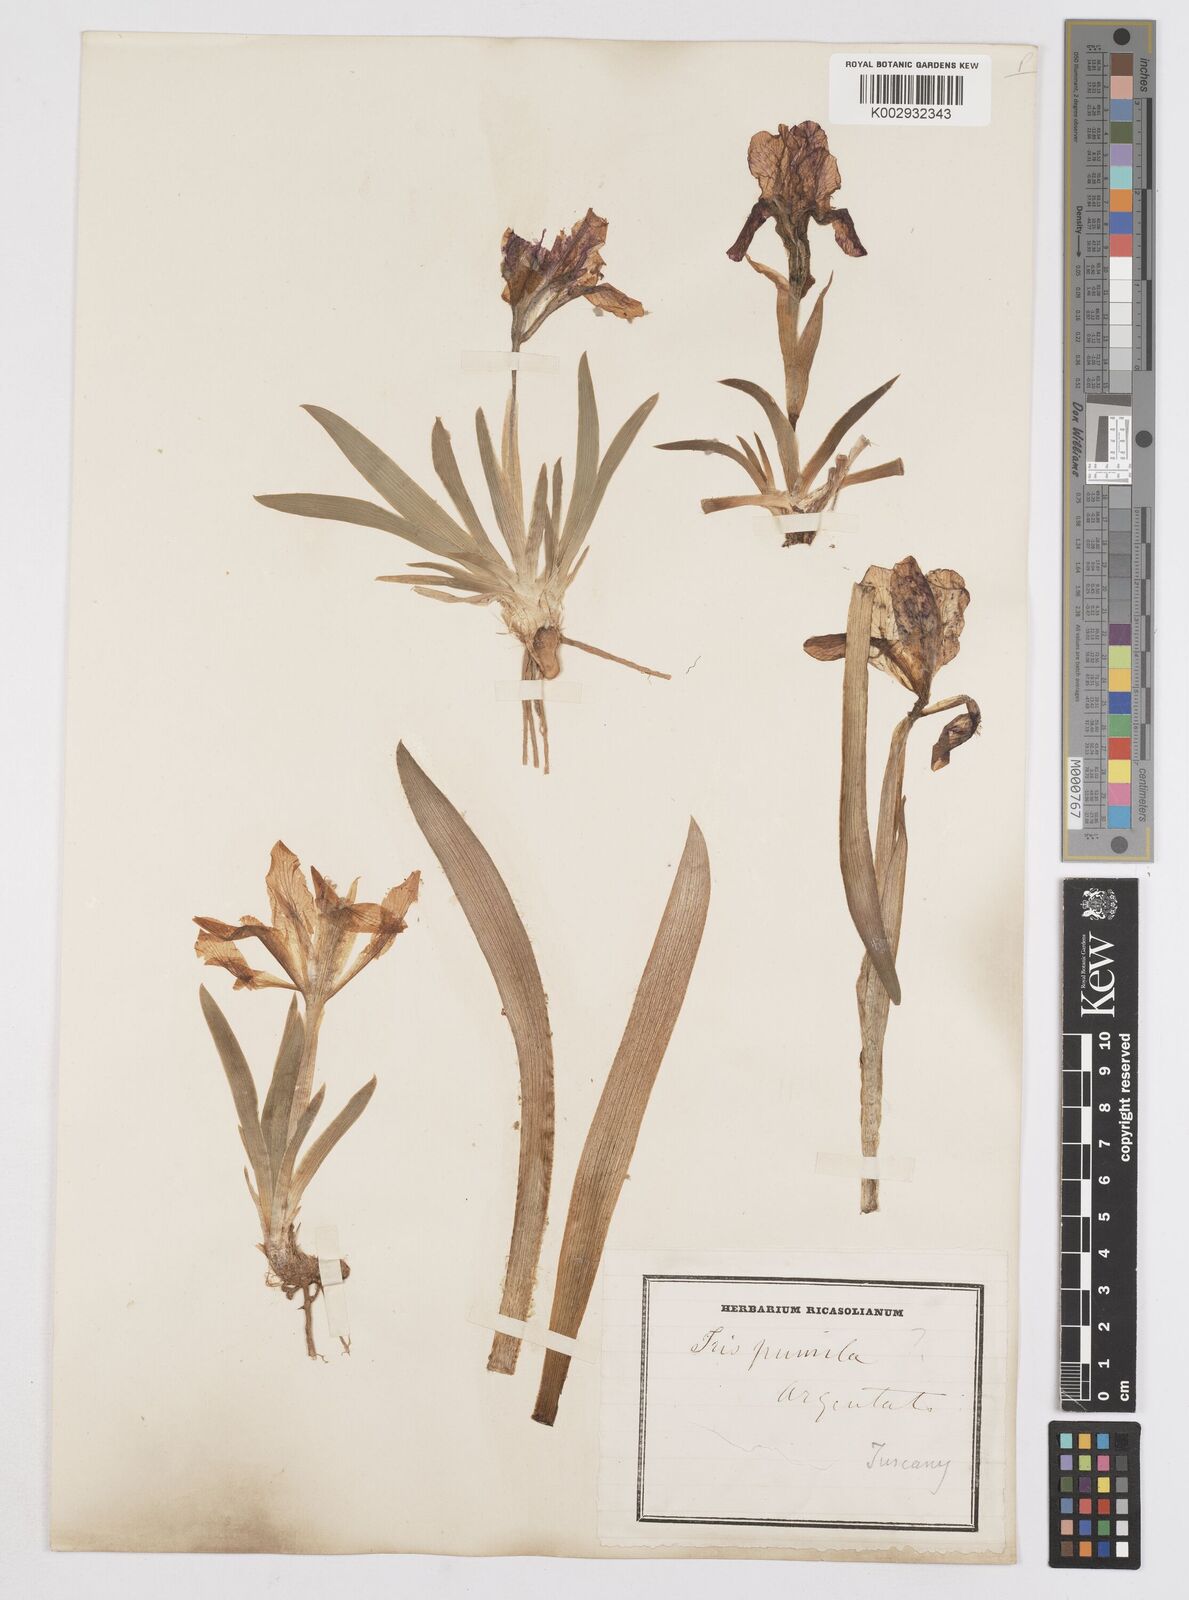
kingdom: Plantae
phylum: Tracheophyta
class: Liliopsida
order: Asparagales
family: Iridaceae
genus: Iris
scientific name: Iris pumila
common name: Dwarf iris
